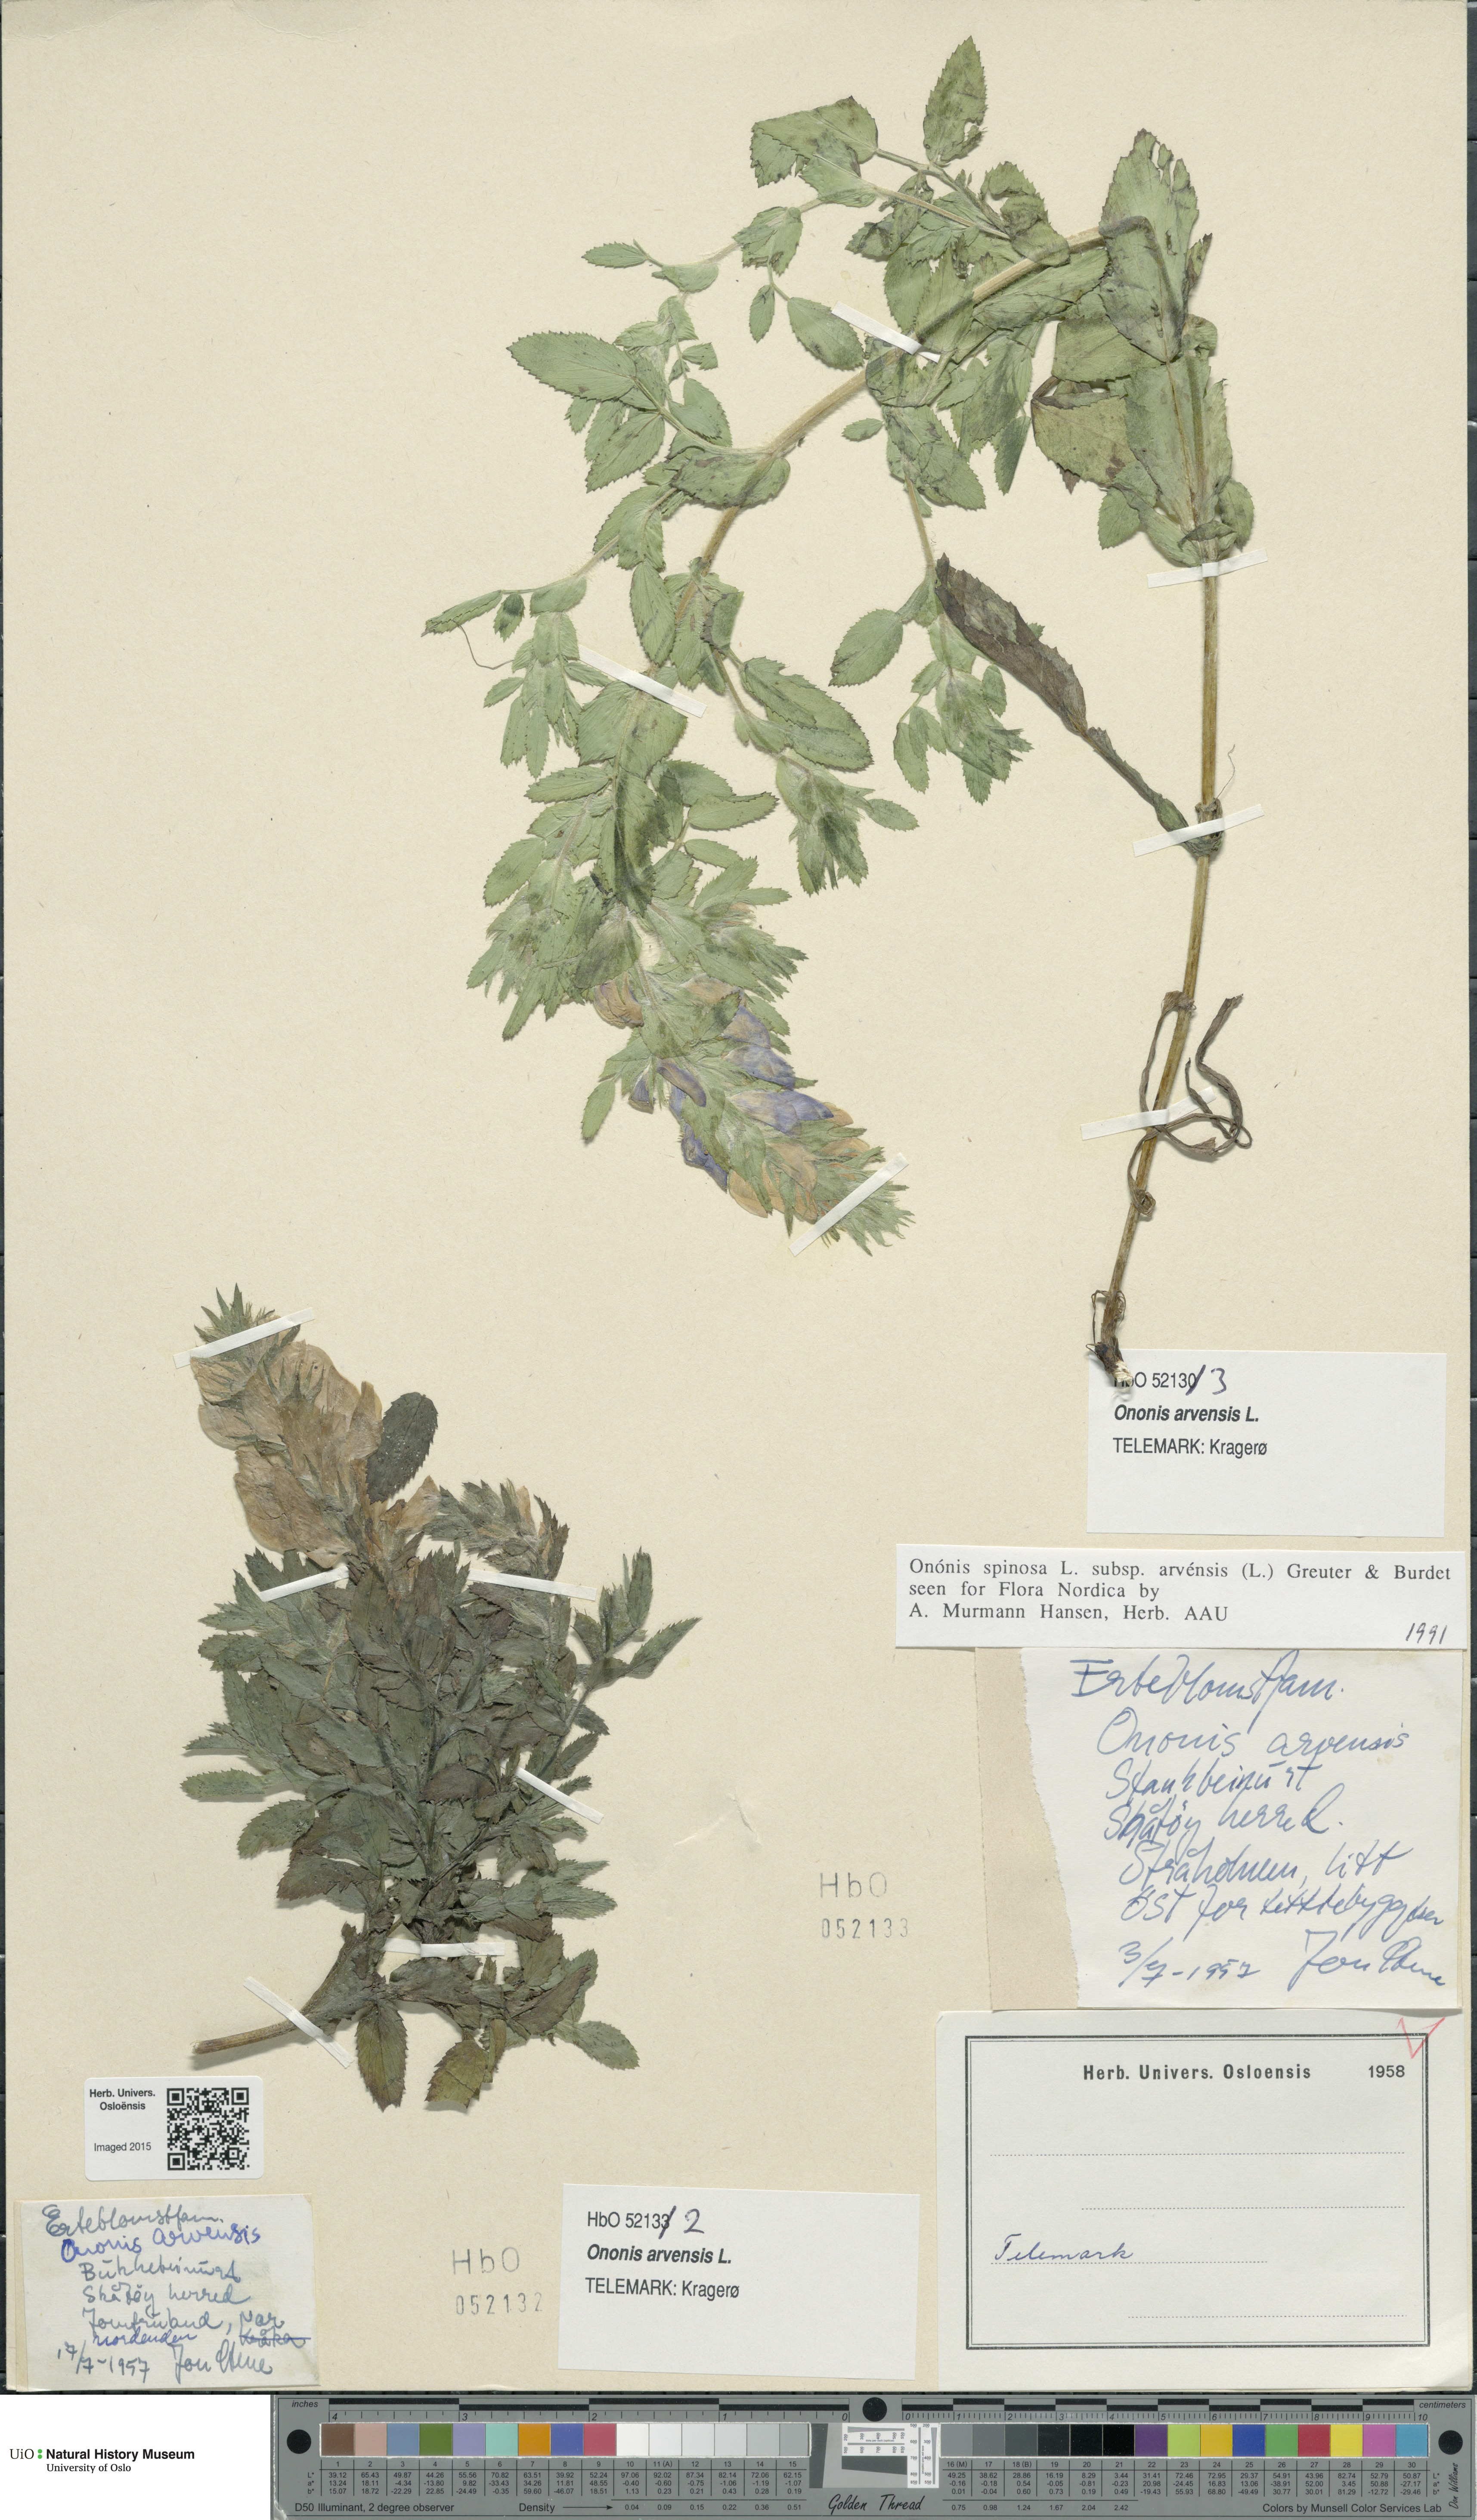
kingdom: Plantae
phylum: Tracheophyta
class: Magnoliopsida
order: Fabales
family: Fabaceae
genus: Ononis
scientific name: Ononis arvensis
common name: Field restharrow
